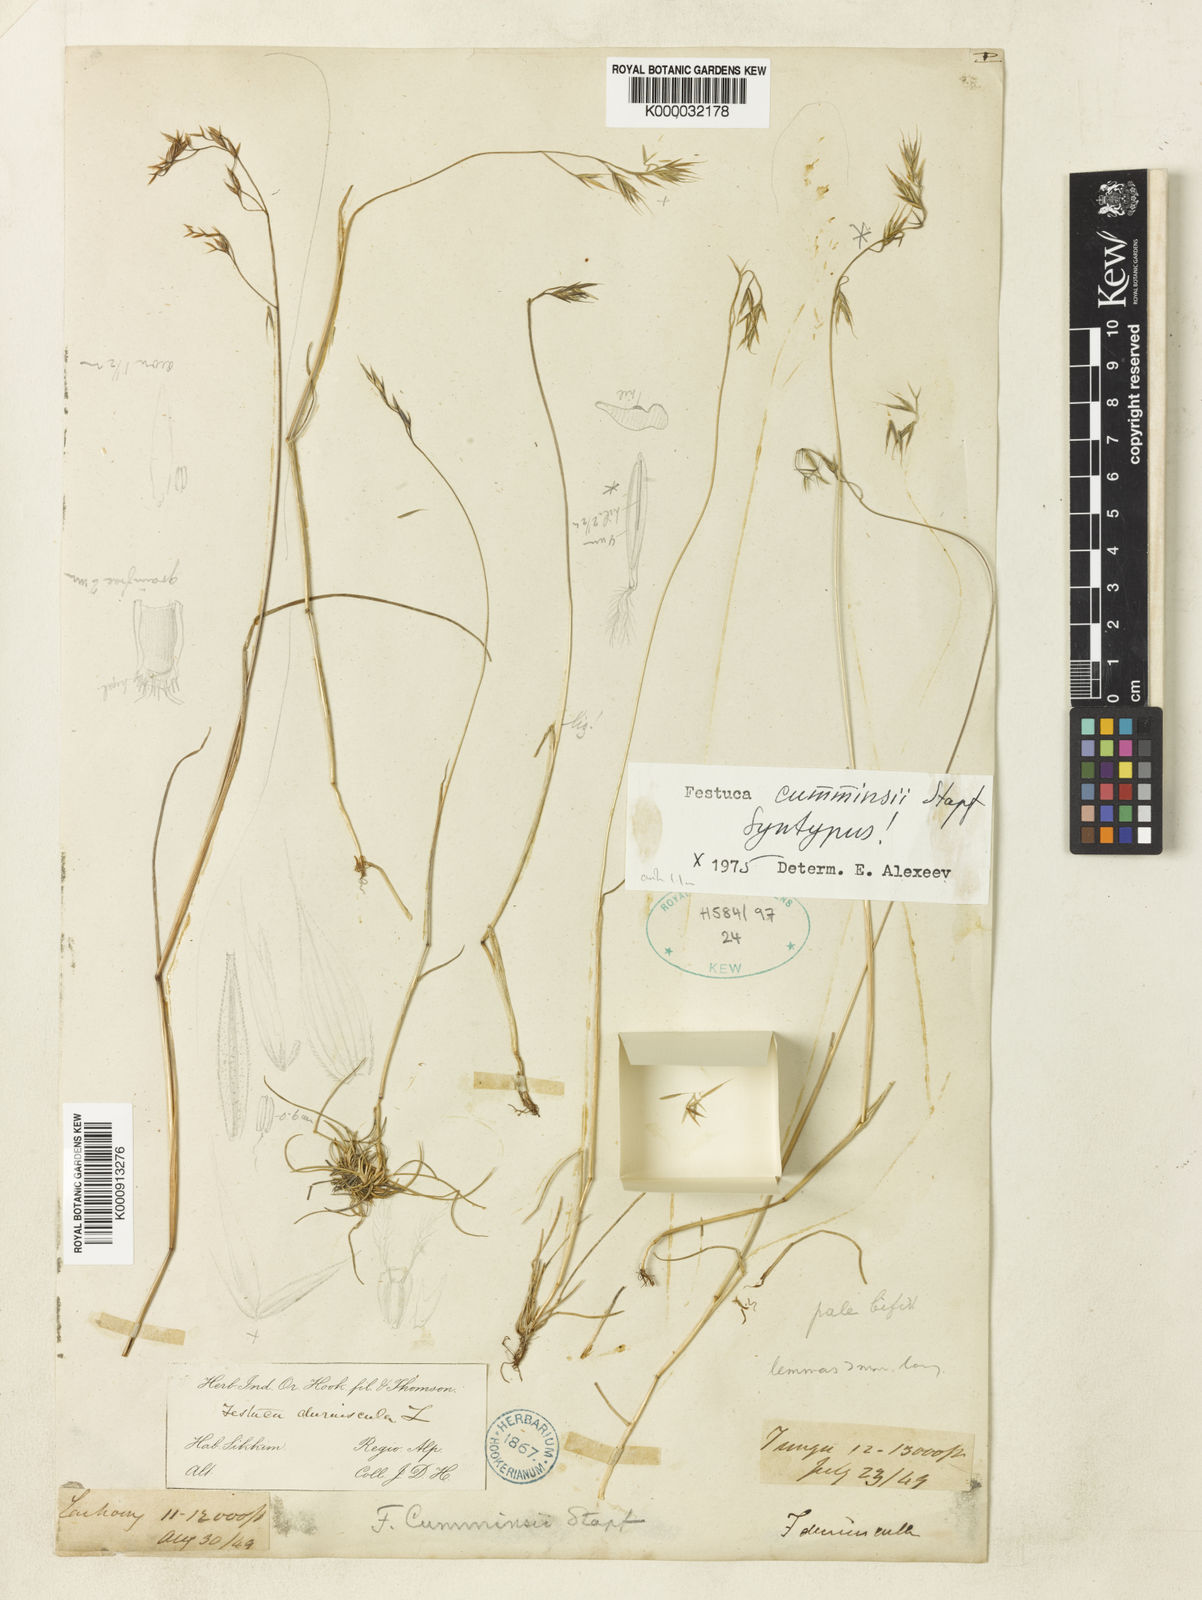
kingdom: Plantae
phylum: Tracheophyta
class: Liliopsida
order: Poales
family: Poaceae
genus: Festuca
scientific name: Festuca cumminsii
